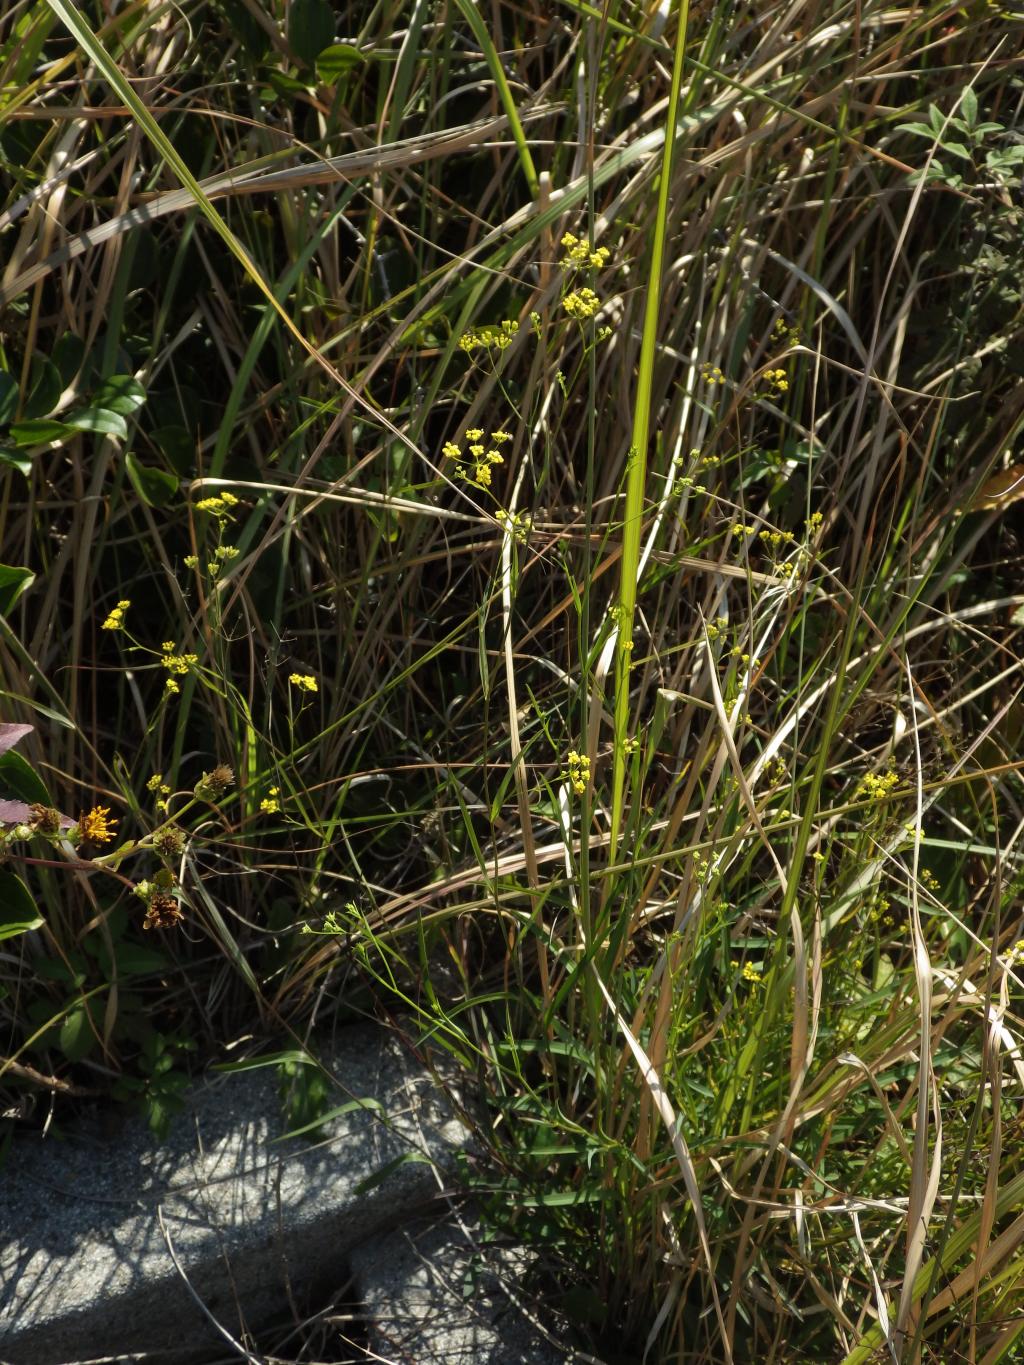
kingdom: Plantae
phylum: Tracheophyta
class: Magnoliopsida
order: Apiales
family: Apiaceae
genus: Bupleurum
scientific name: Bupleurum kaoi
